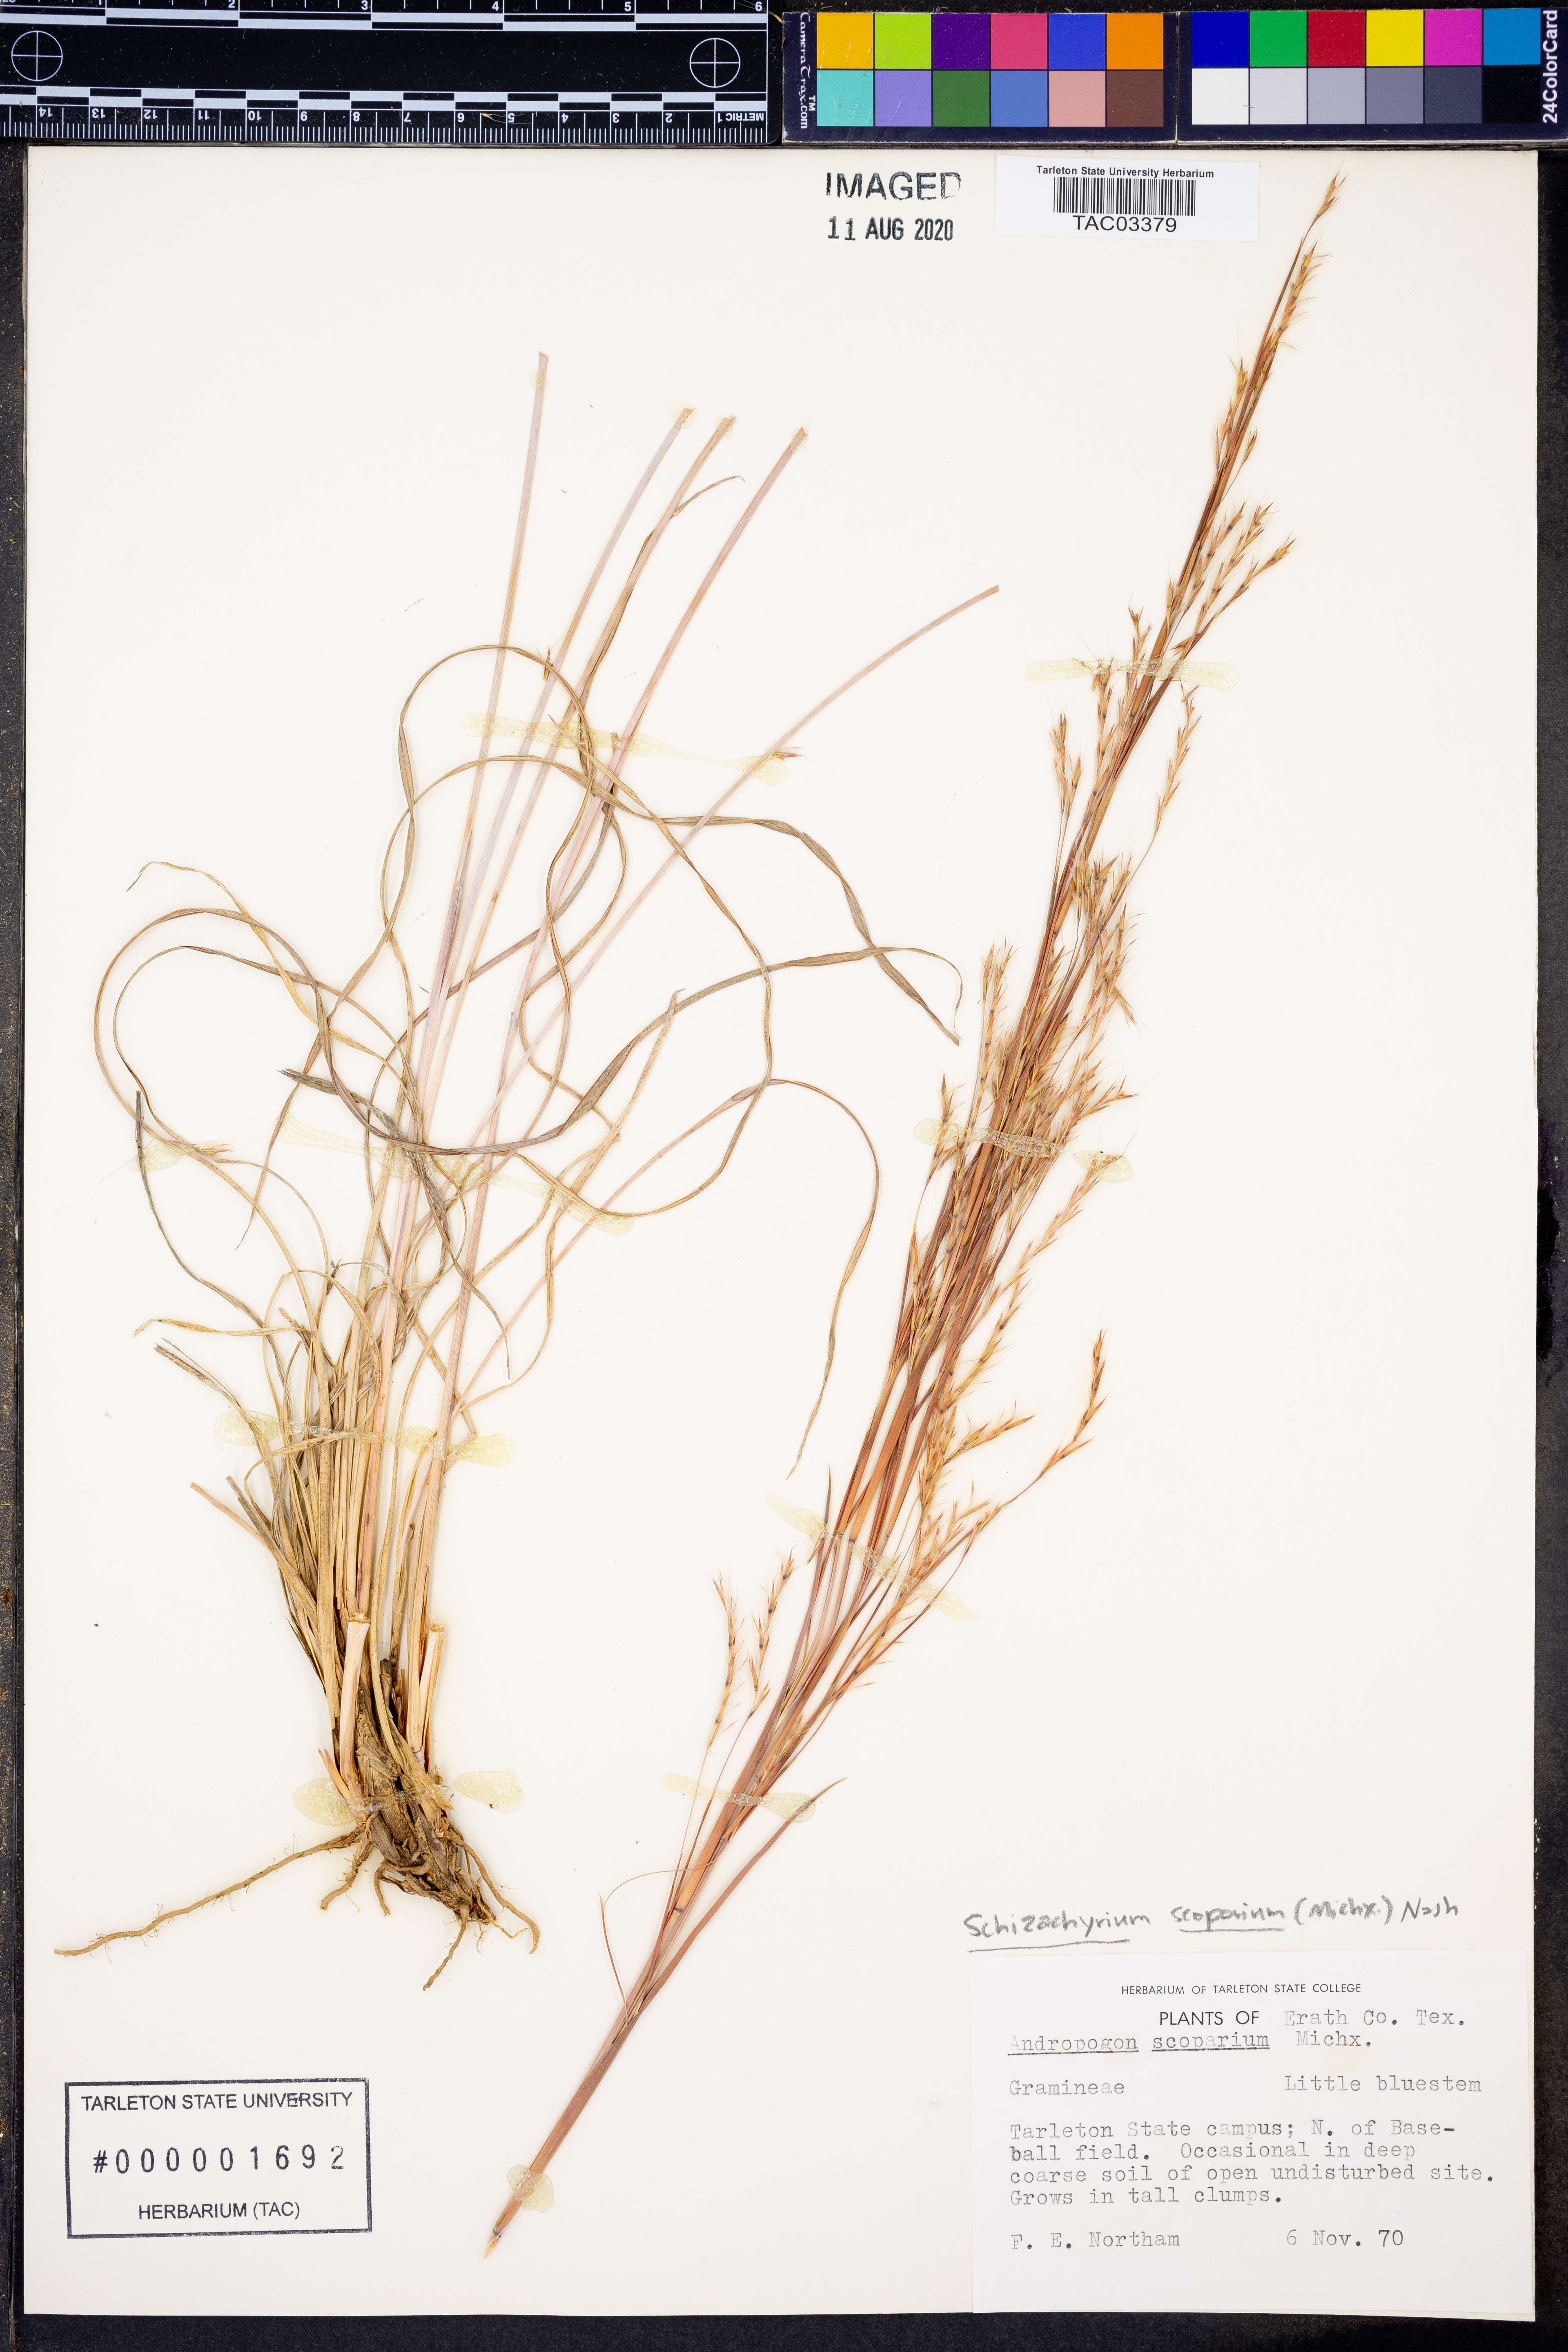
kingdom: Plantae
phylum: Tracheophyta
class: Liliopsida
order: Poales
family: Poaceae
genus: Schizachyrium
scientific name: Schizachyrium scoparium
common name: Little bluestem
